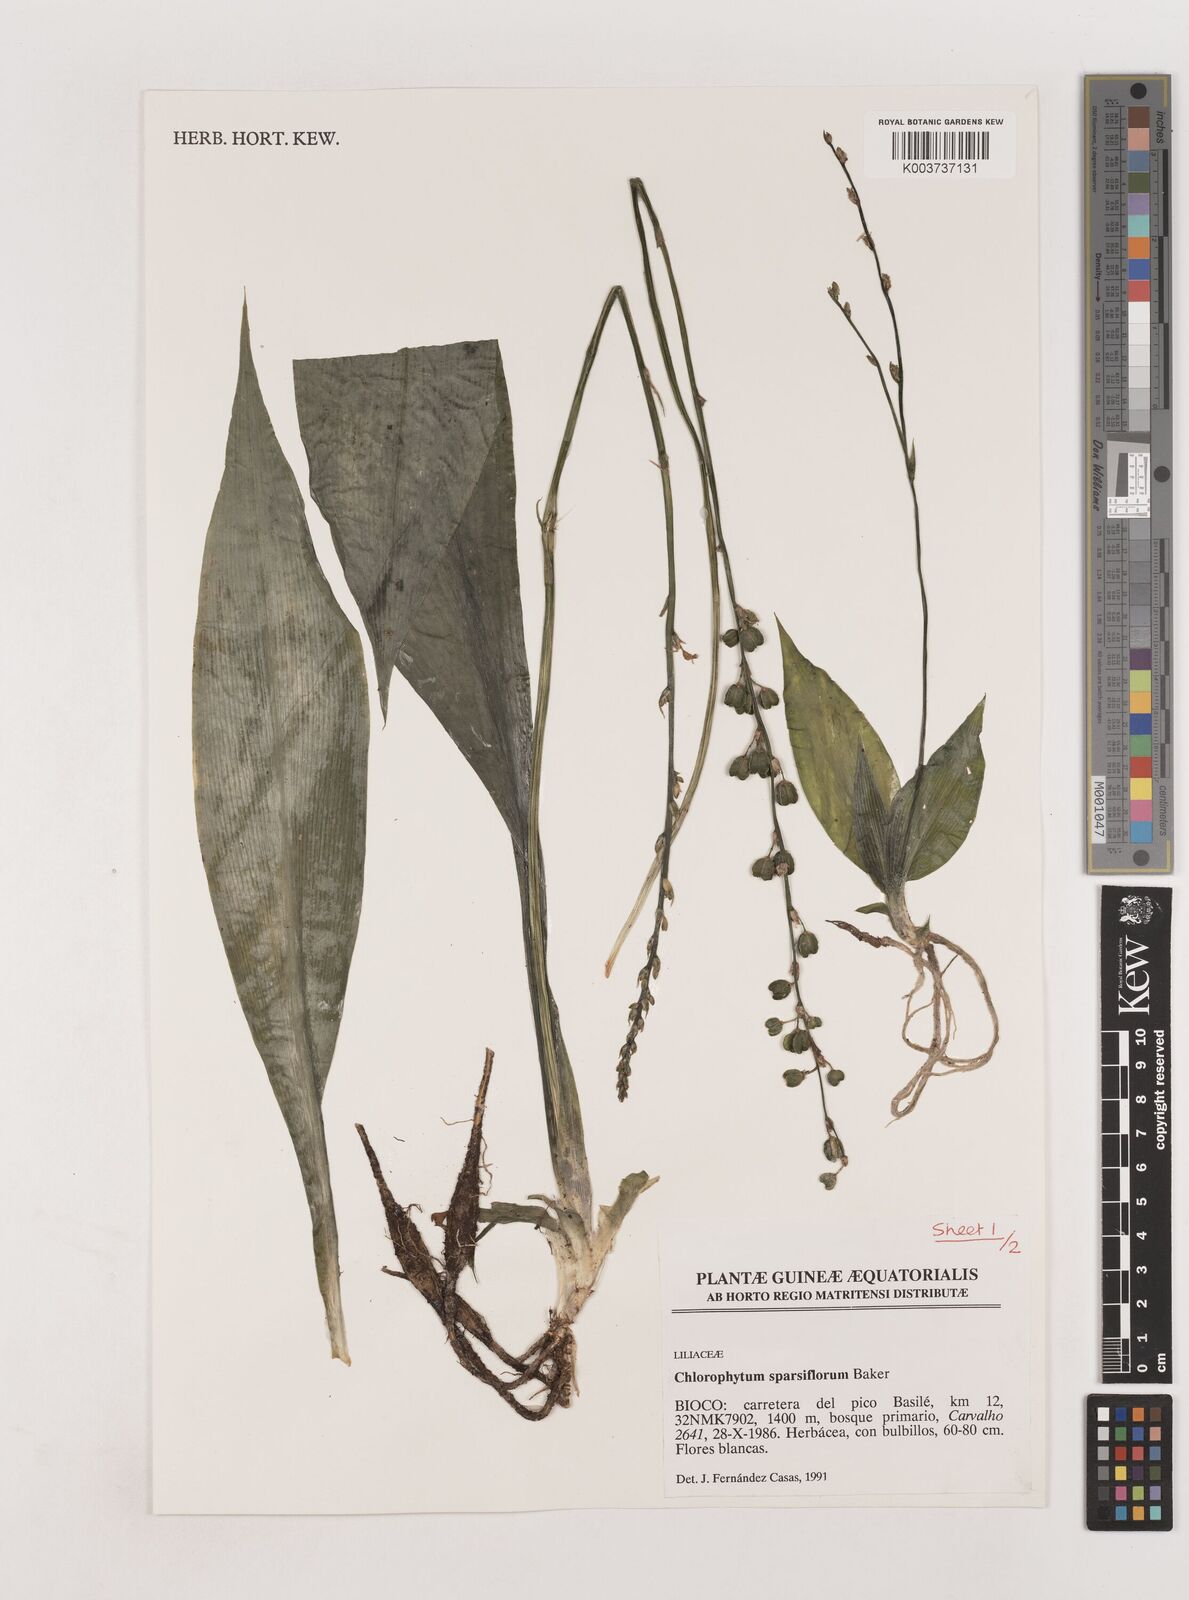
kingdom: Plantae
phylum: Tracheophyta
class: Liliopsida
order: Asparagales
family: Asparagaceae
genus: Chlorophytum
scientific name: Chlorophytum sparsiflorum
